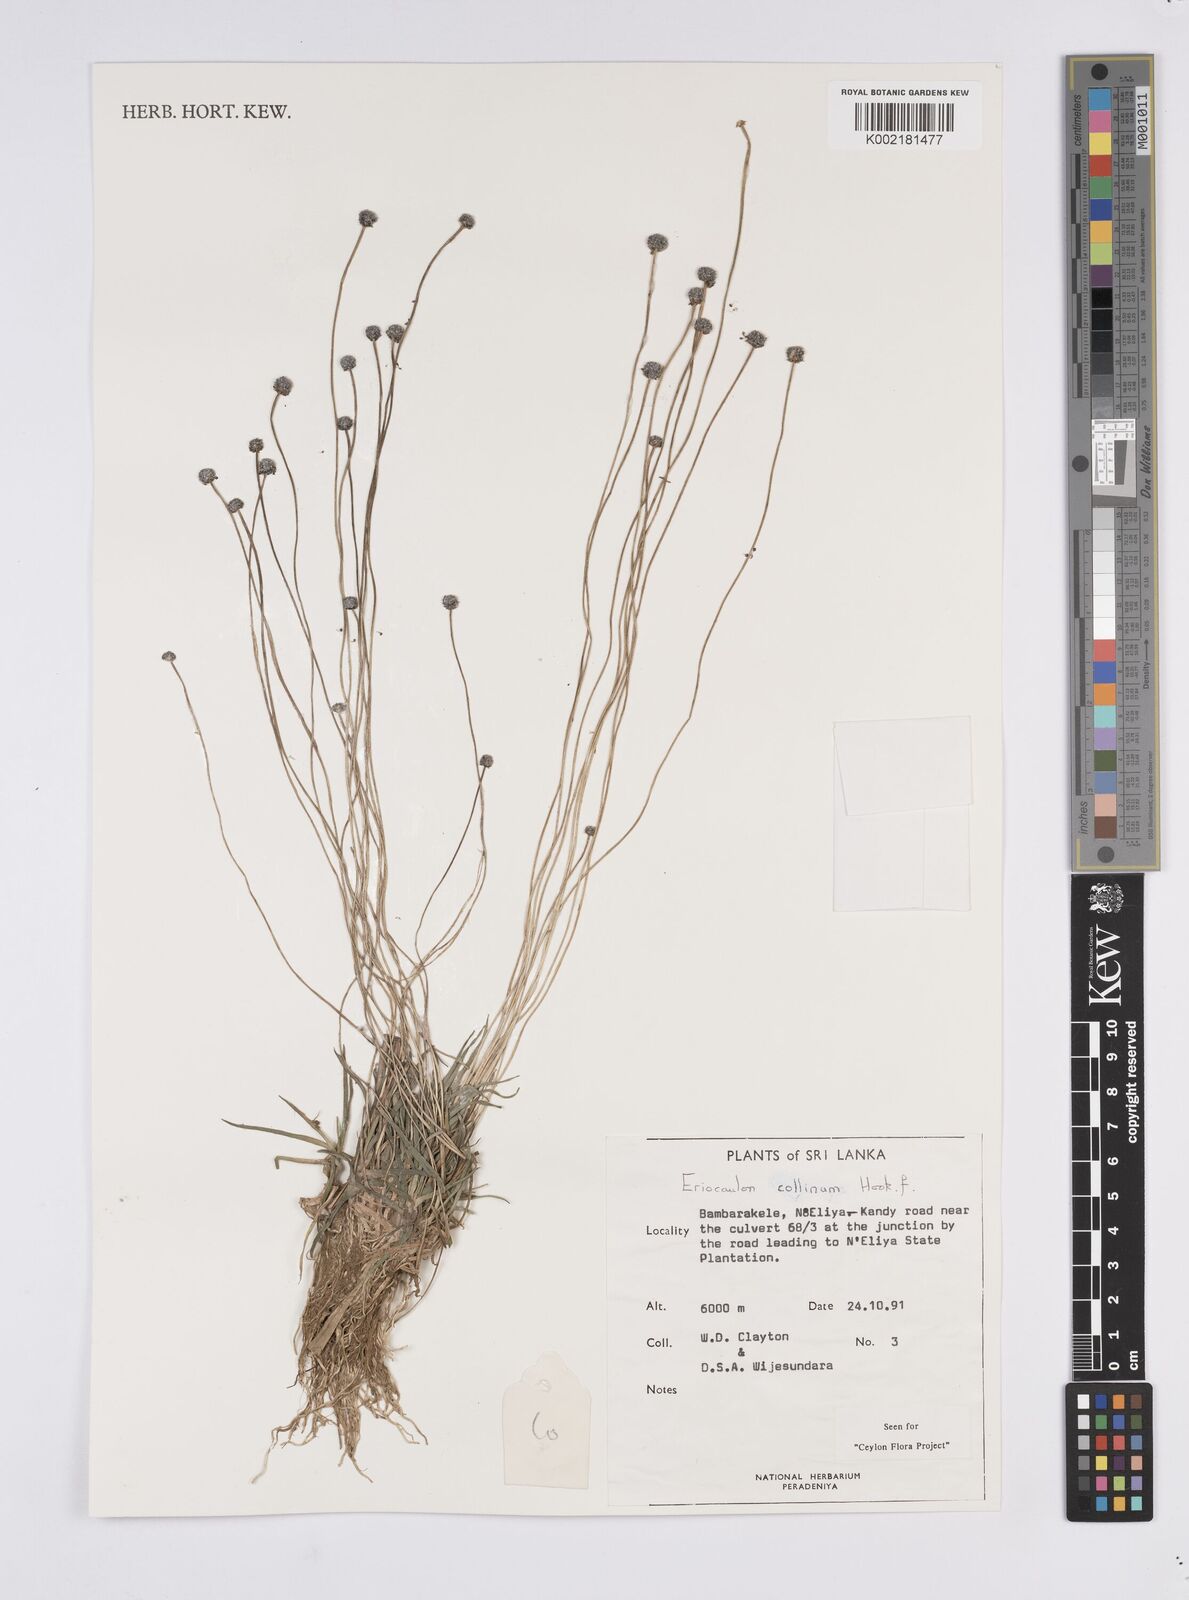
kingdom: Plantae
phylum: Tracheophyta
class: Liliopsida
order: Poales
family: Eriocaulaceae
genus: Eriocaulon
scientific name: Eriocaulon odoratum
